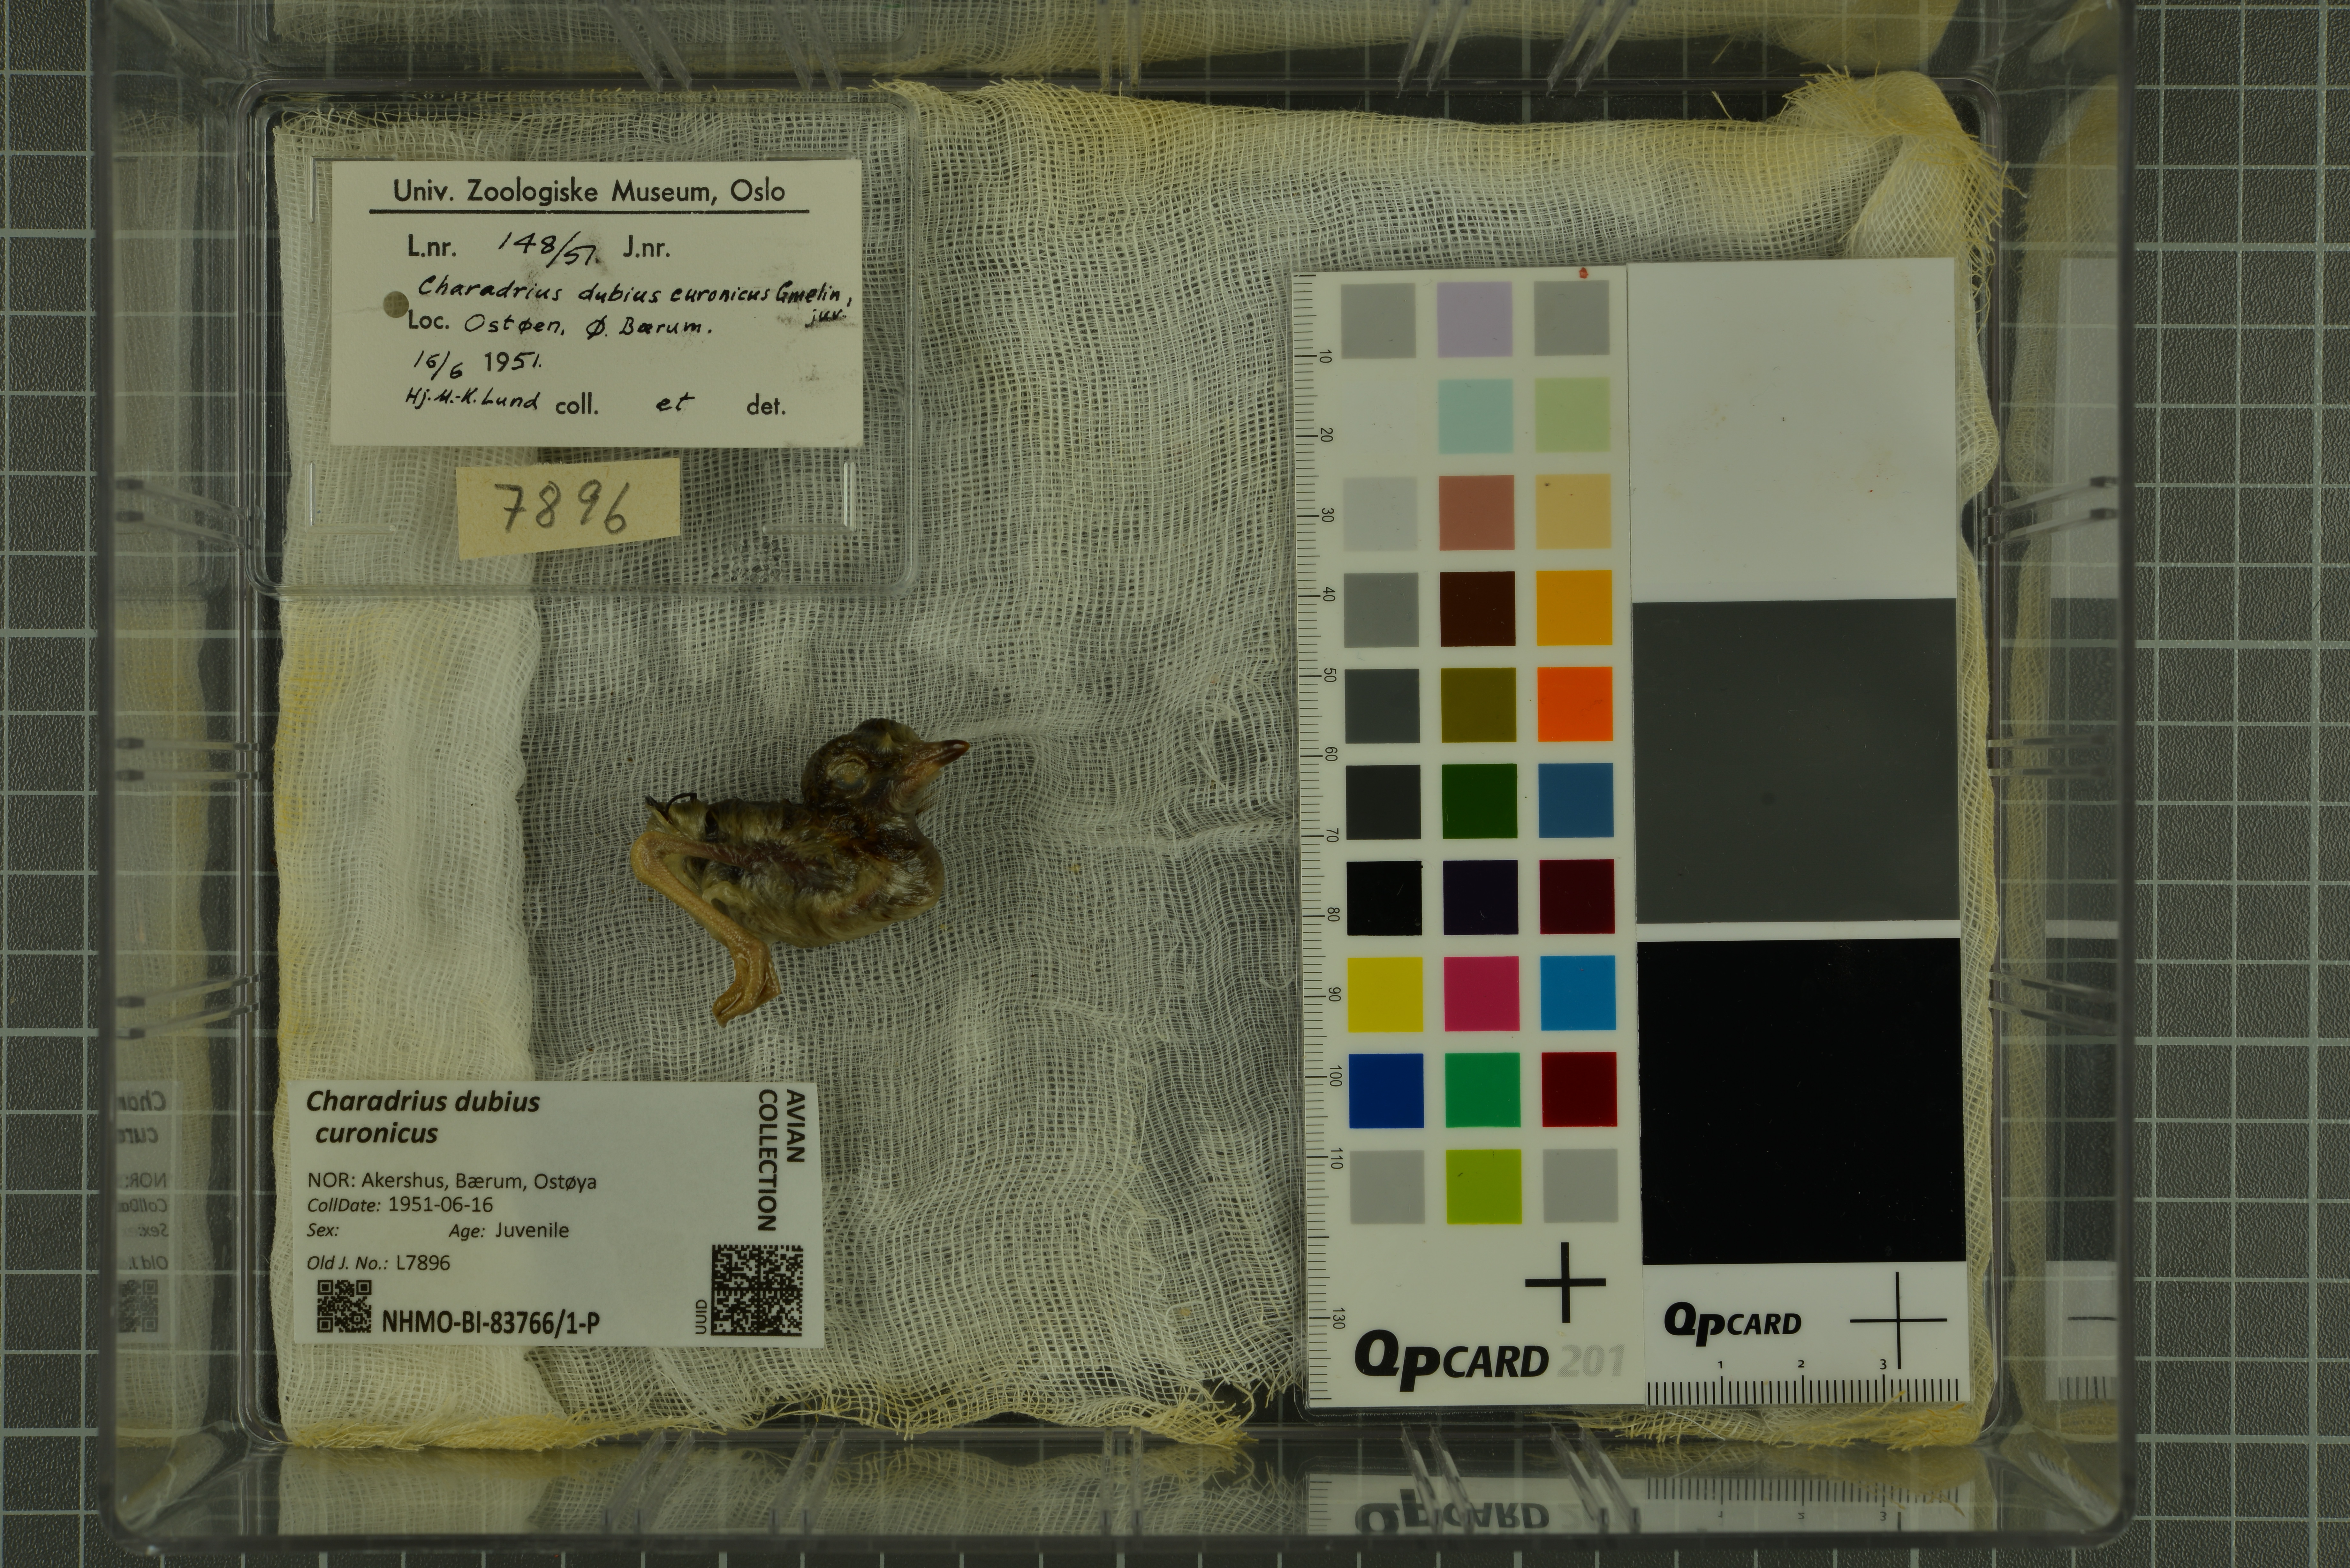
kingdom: Animalia
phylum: Chordata
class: Aves
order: Charadriiformes
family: Charadriidae
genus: Charadrius
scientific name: Charadrius dubius
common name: Little ringed plover
